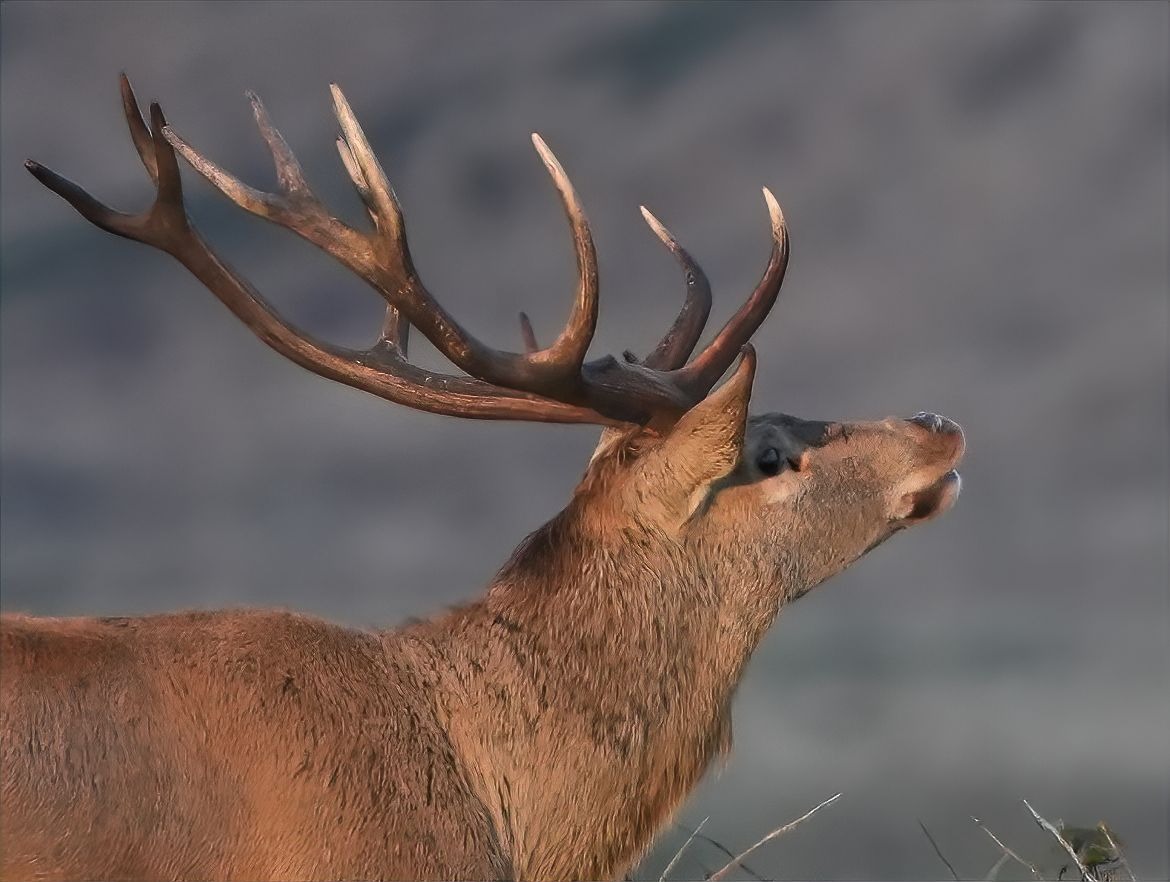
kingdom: Animalia
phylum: Chordata
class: Mammalia
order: Artiodactyla
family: Cervidae
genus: Cervus
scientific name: Cervus elaphus
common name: Krondyr
